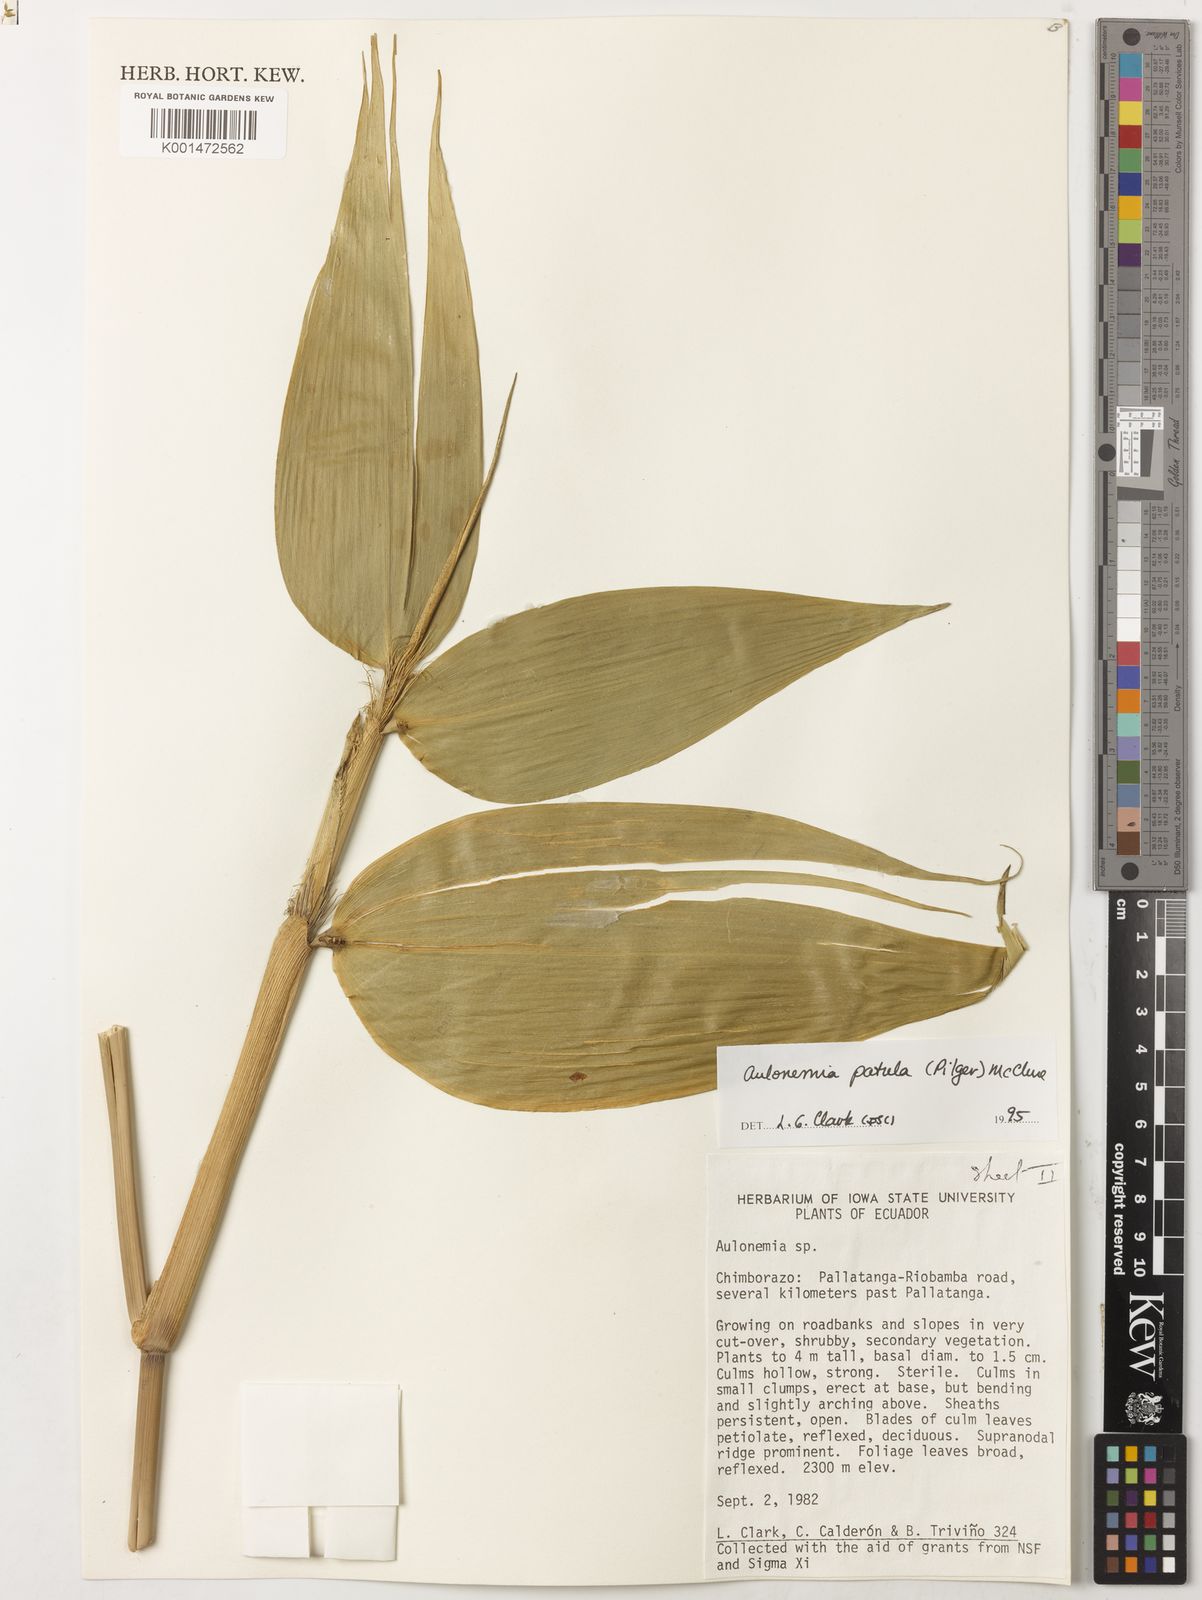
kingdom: Plantae
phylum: Tracheophyta
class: Liliopsida
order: Poales
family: Poaceae
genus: Aulonemia
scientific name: Aulonemia patula
